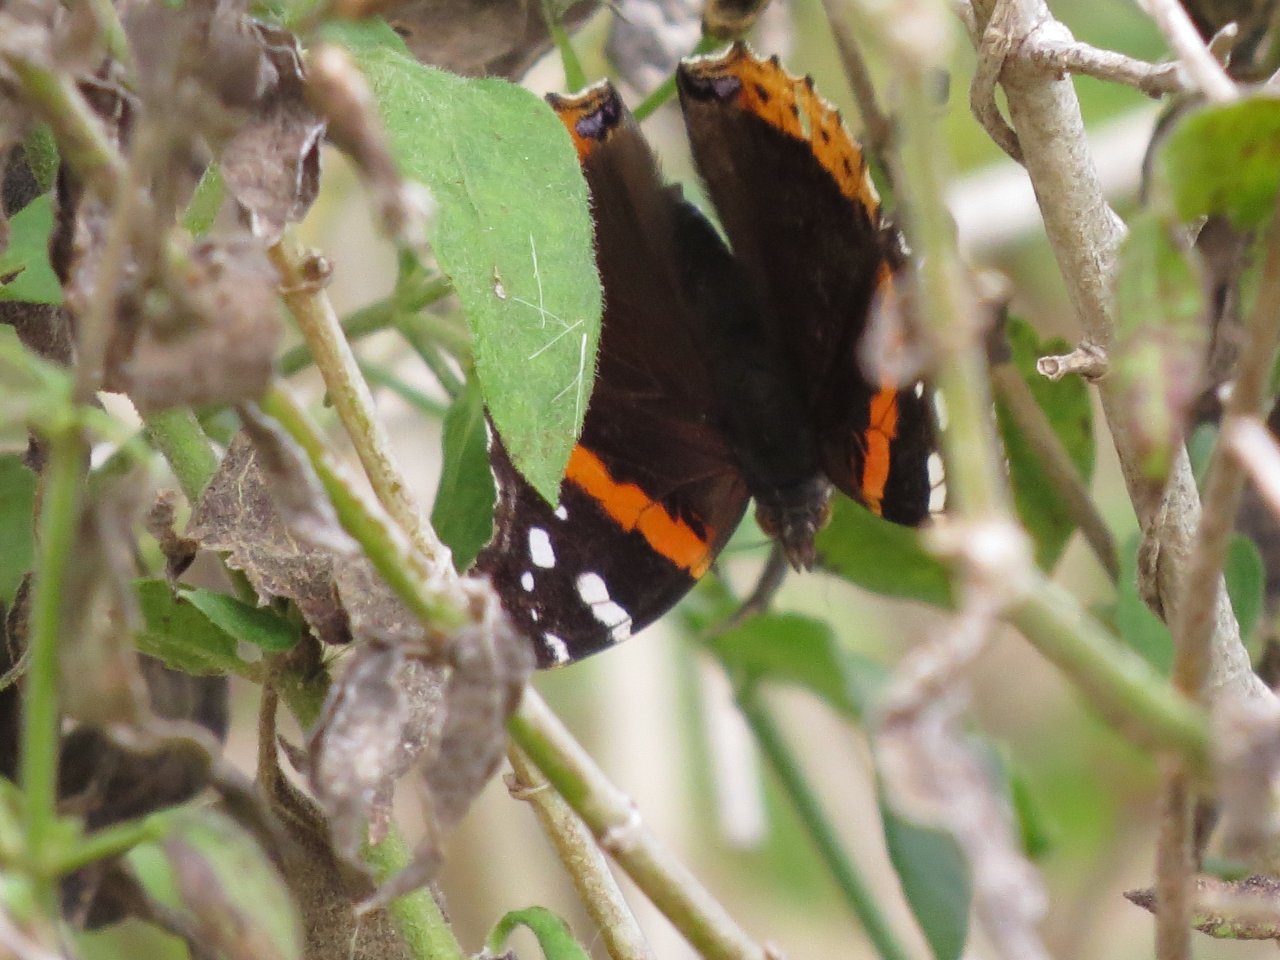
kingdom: Animalia
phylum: Arthropoda
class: Insecta
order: Lepidoptera
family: Nymphalidae
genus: Vanessa
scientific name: Vanessa atalanta
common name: Red Admiral
